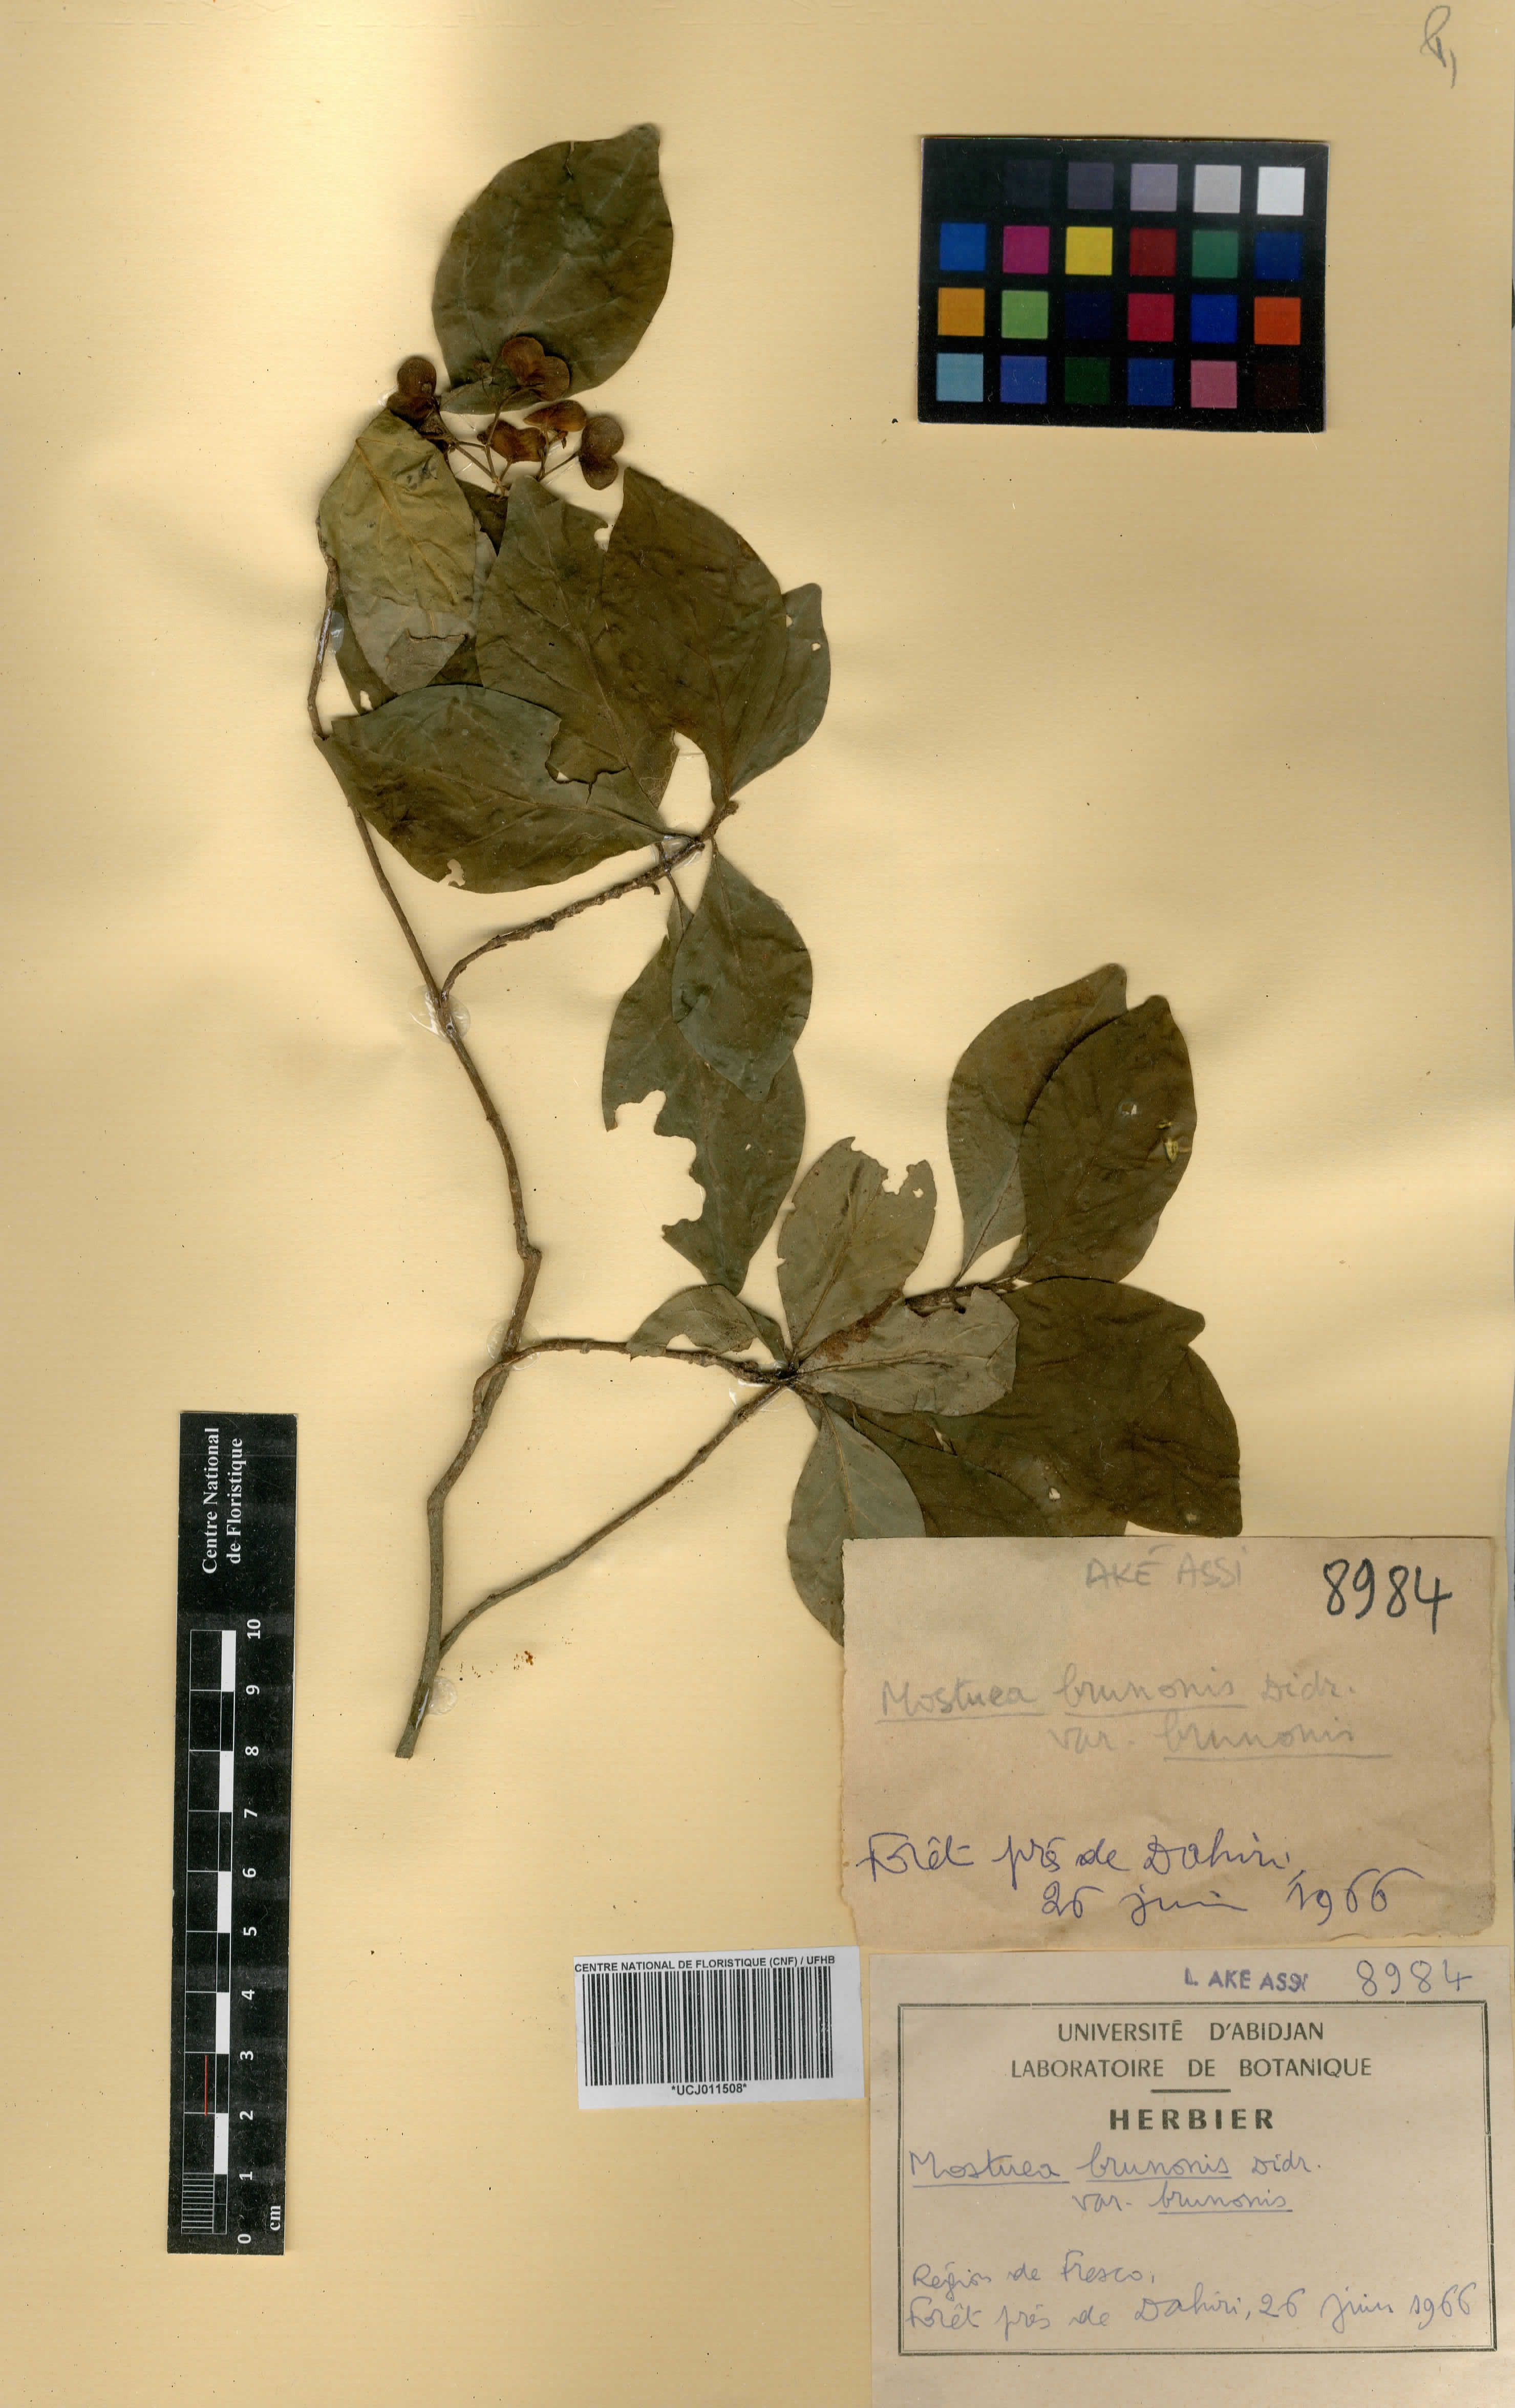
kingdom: Plantae
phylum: Tracheophyta
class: Magnoliopsida
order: Gentianales
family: Gelsemiaceae
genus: Mostuea
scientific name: Mostuea brunonis
